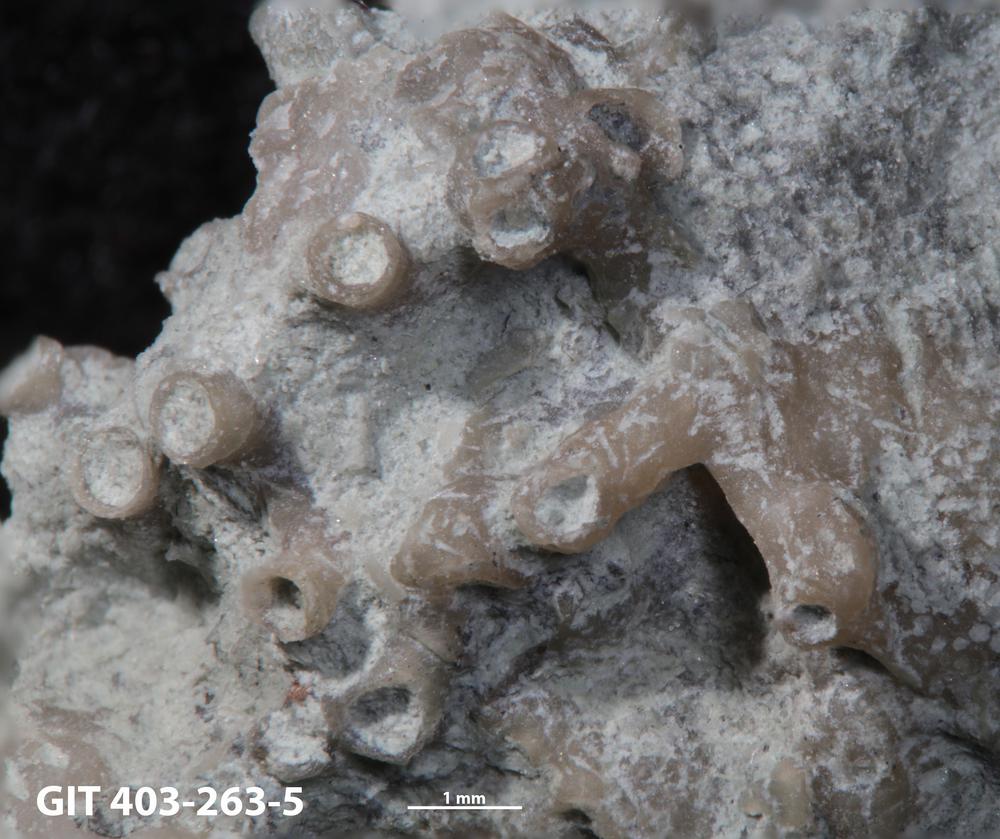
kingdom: Animalia
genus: Pinaceocladichnus
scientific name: Pinaceocladichnus
